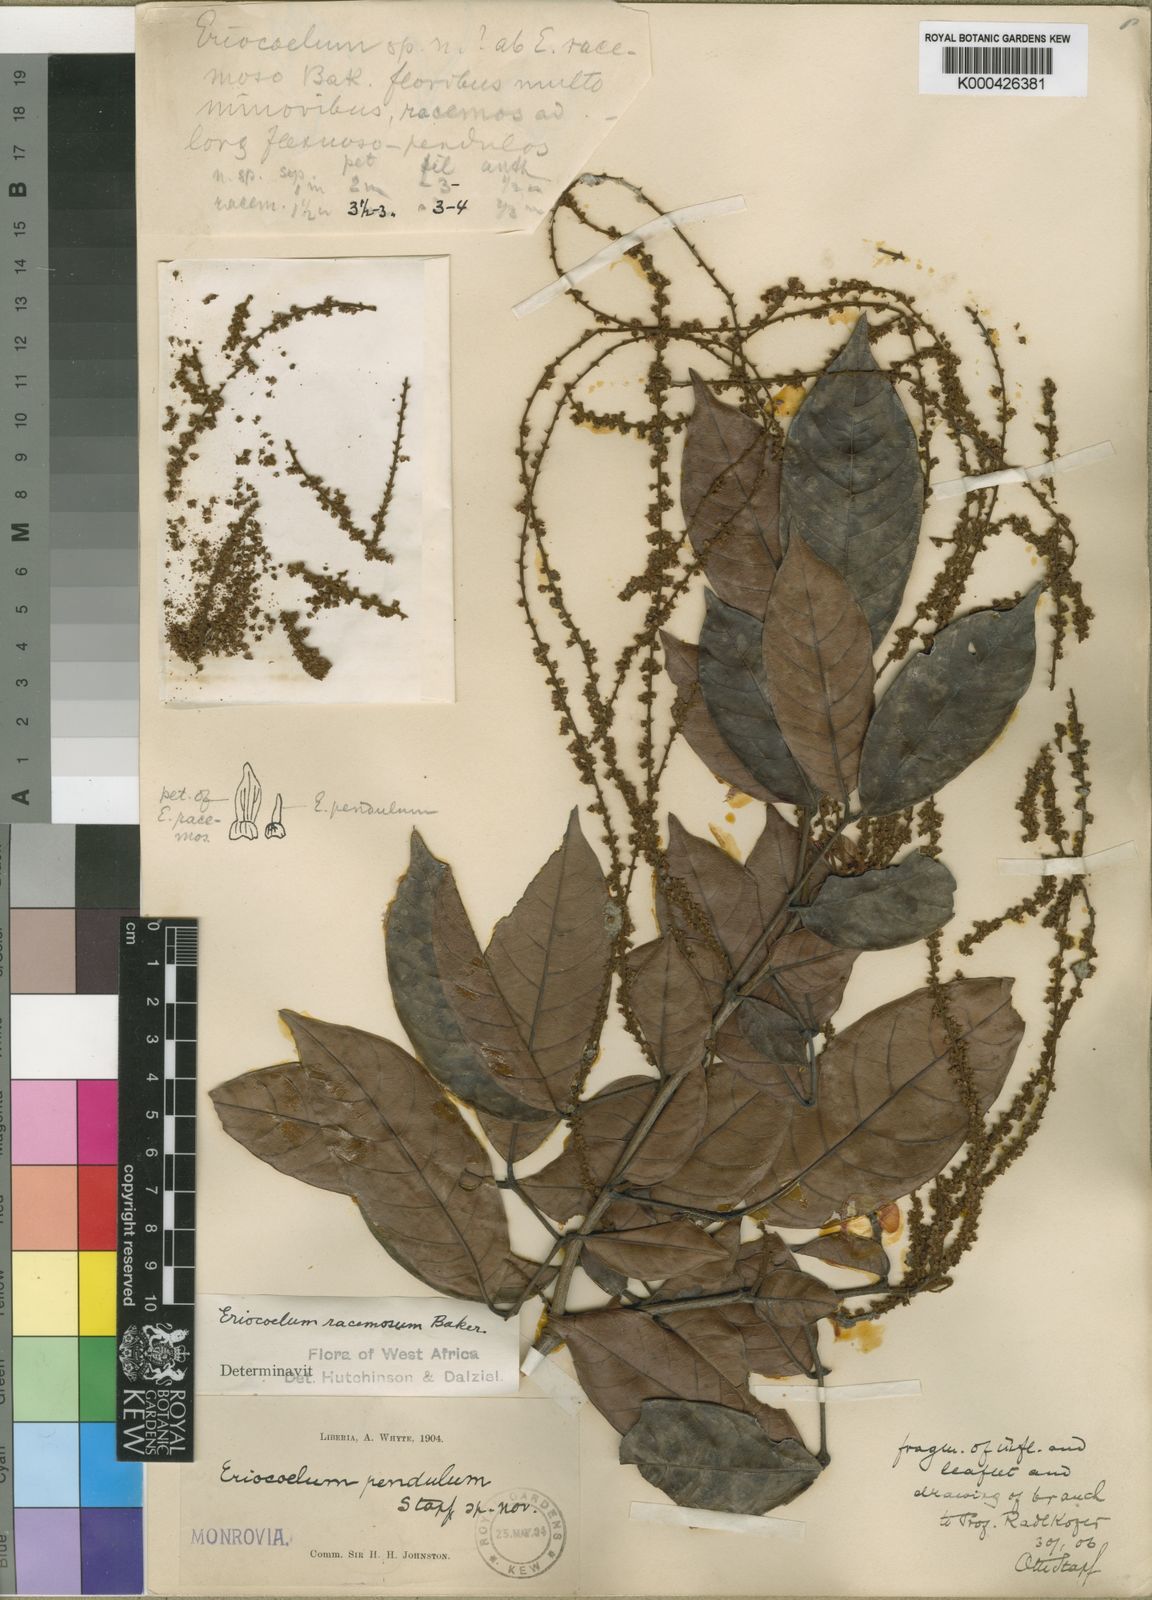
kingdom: Plantae
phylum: Tracheophyta
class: Magnoliopsida
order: Sapindales
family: Sapindaceae
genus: Eriocoelum
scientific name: Eriocoelum racemosum
